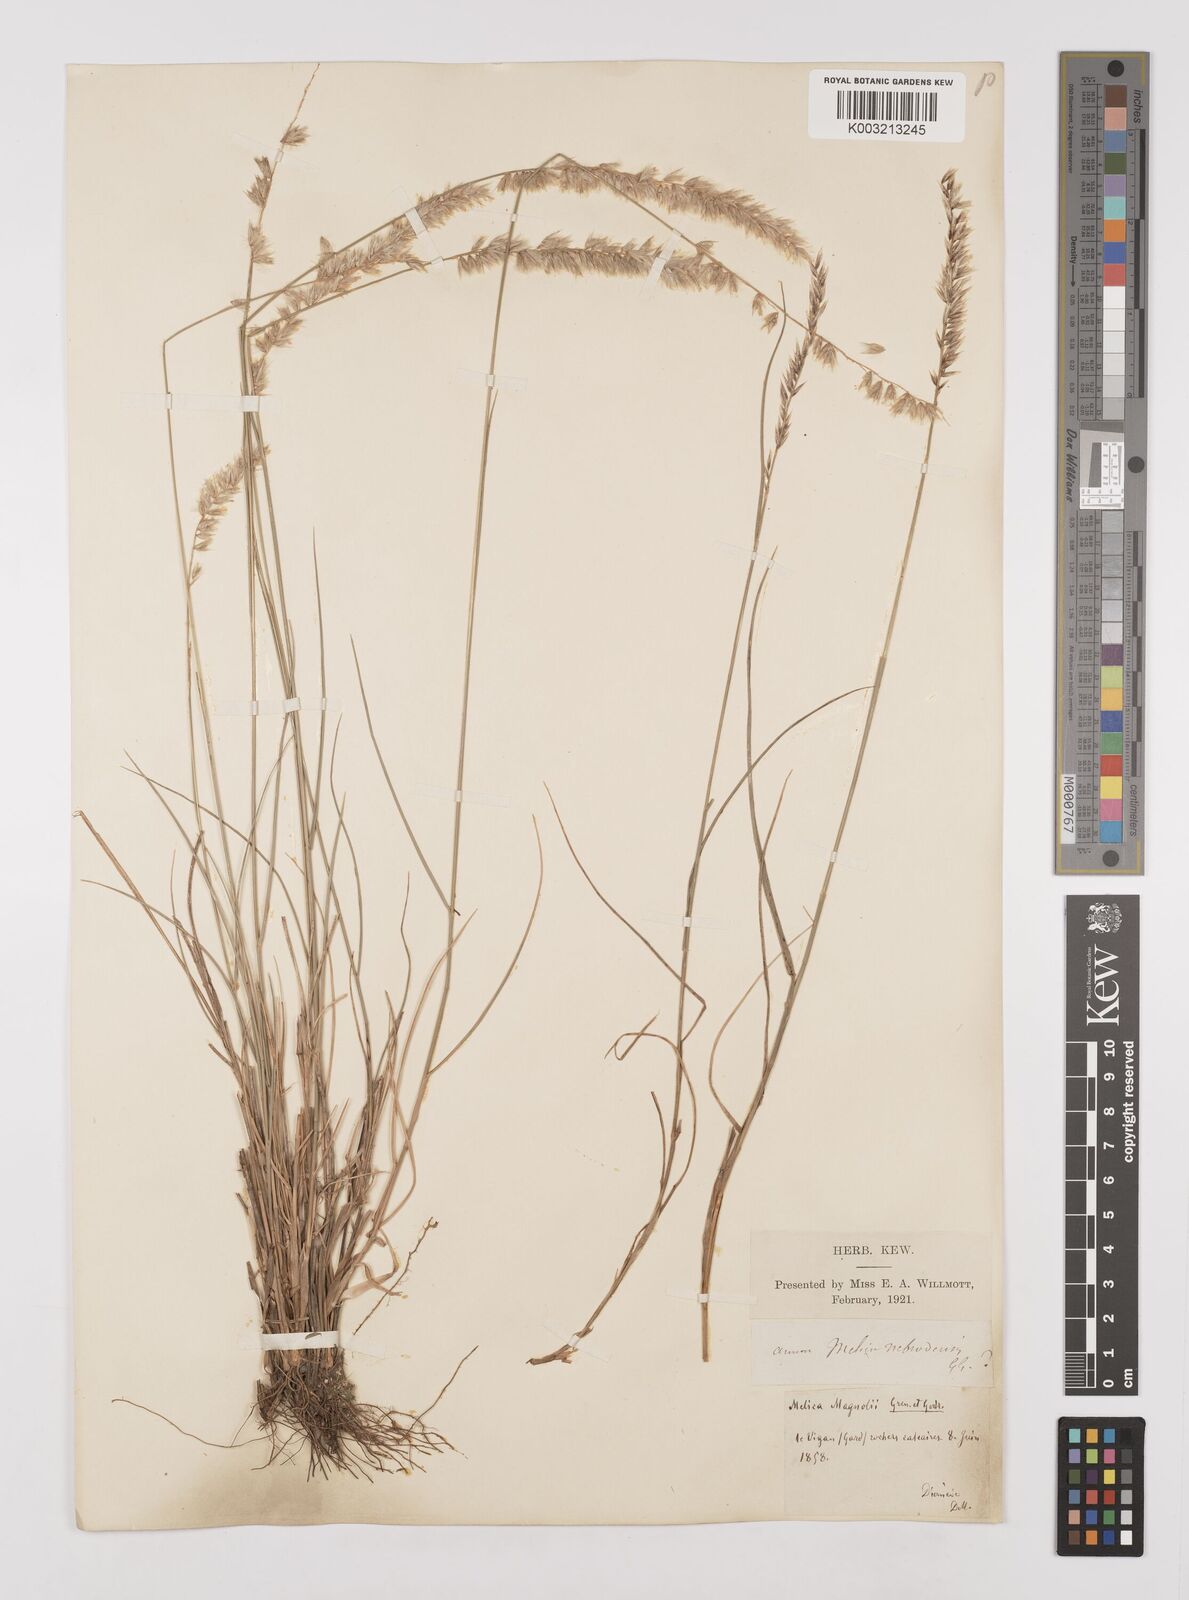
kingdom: Plantae
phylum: Tracheophyta
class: Liliopsida
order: Poales
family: Poaceae
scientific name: Poaceae
